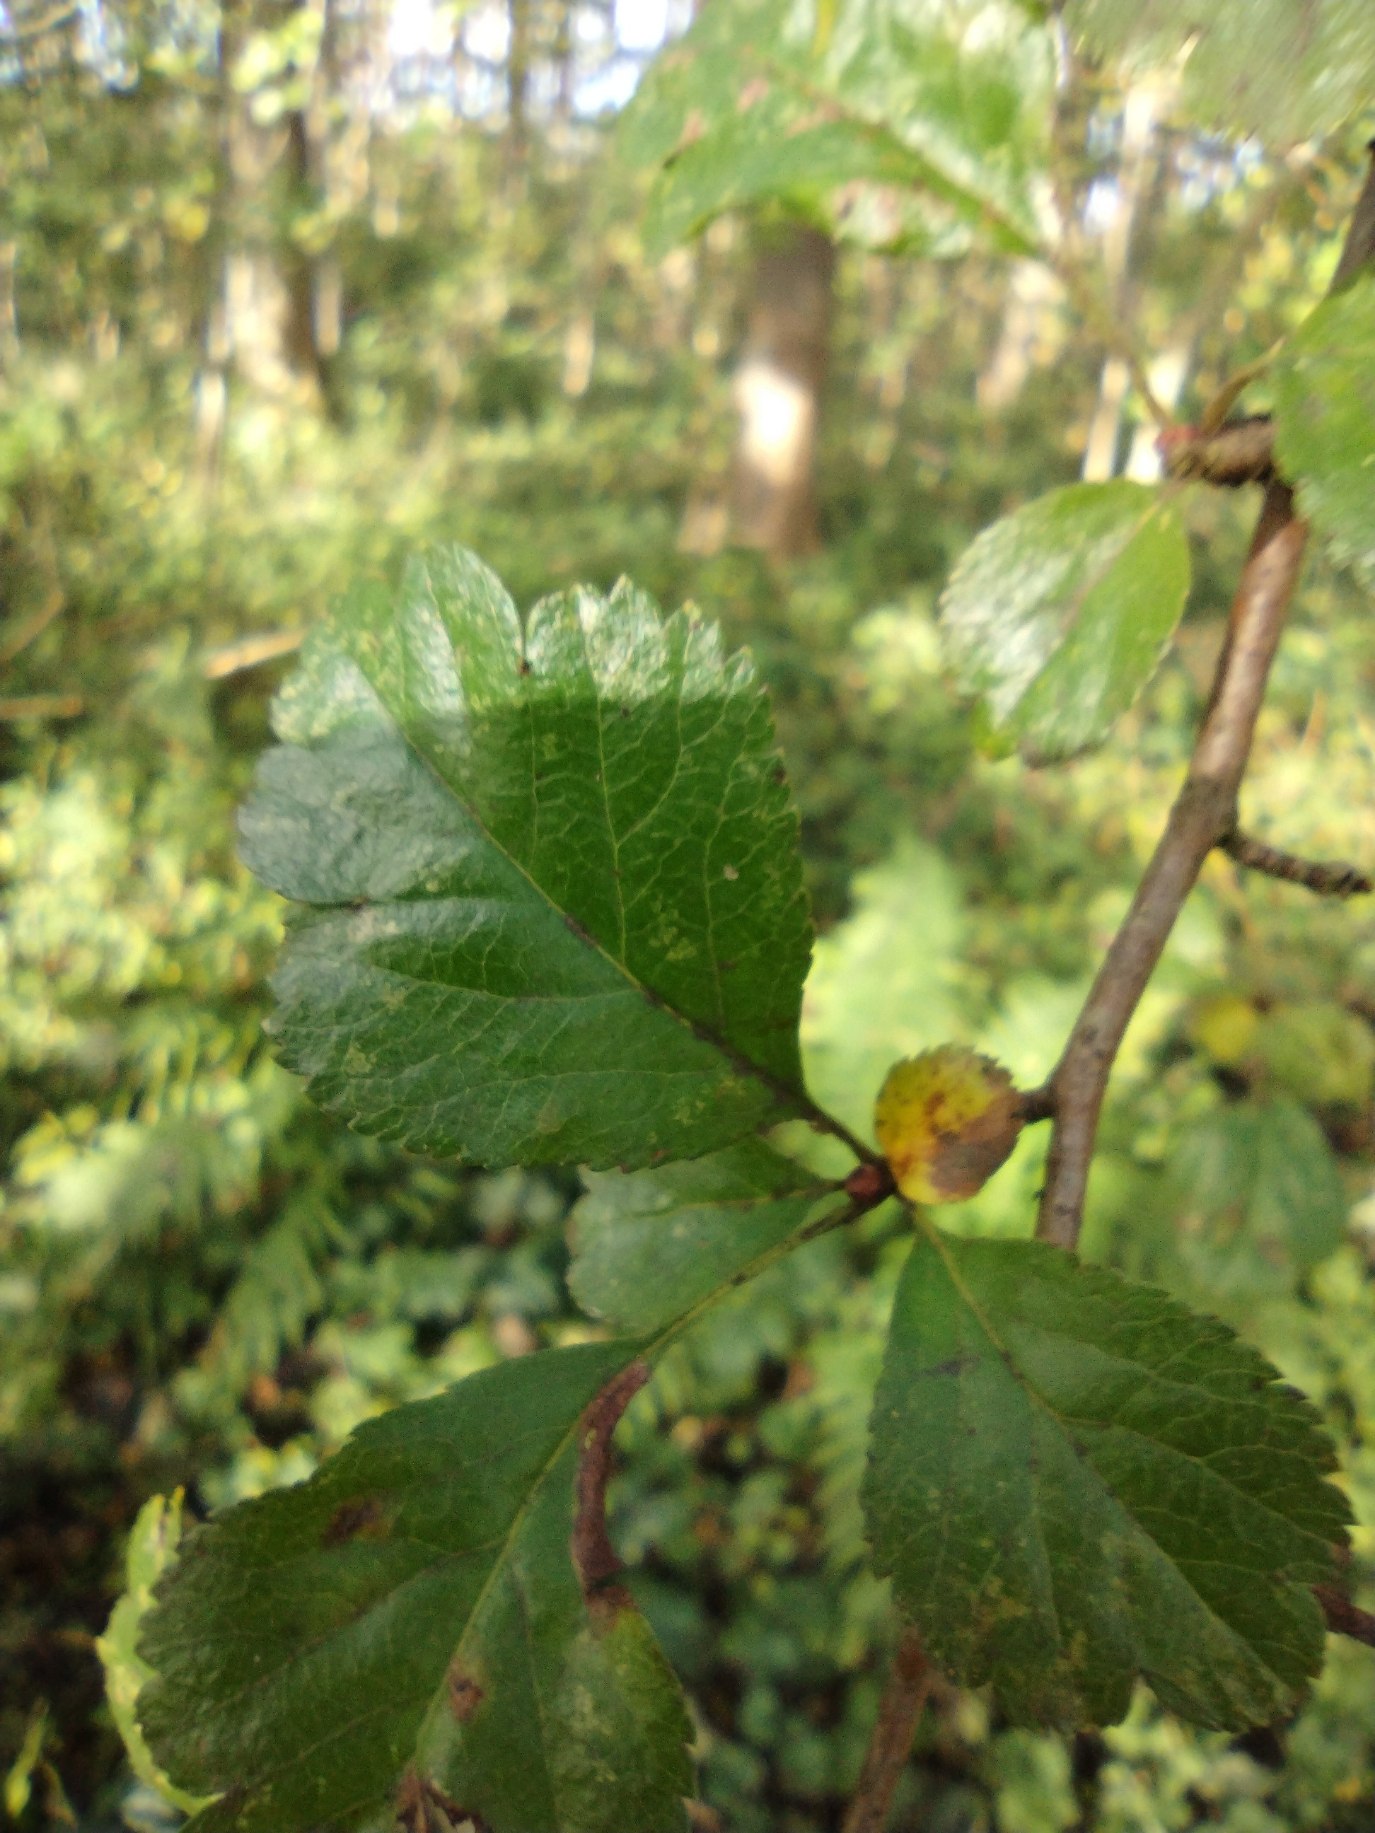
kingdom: Plantae
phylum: Tracheophyta
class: Magnoliopsida
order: Rosales
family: Rosaceae
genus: Crataegus
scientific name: Crataegus laevigata
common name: Almindelig hvidtjørn
